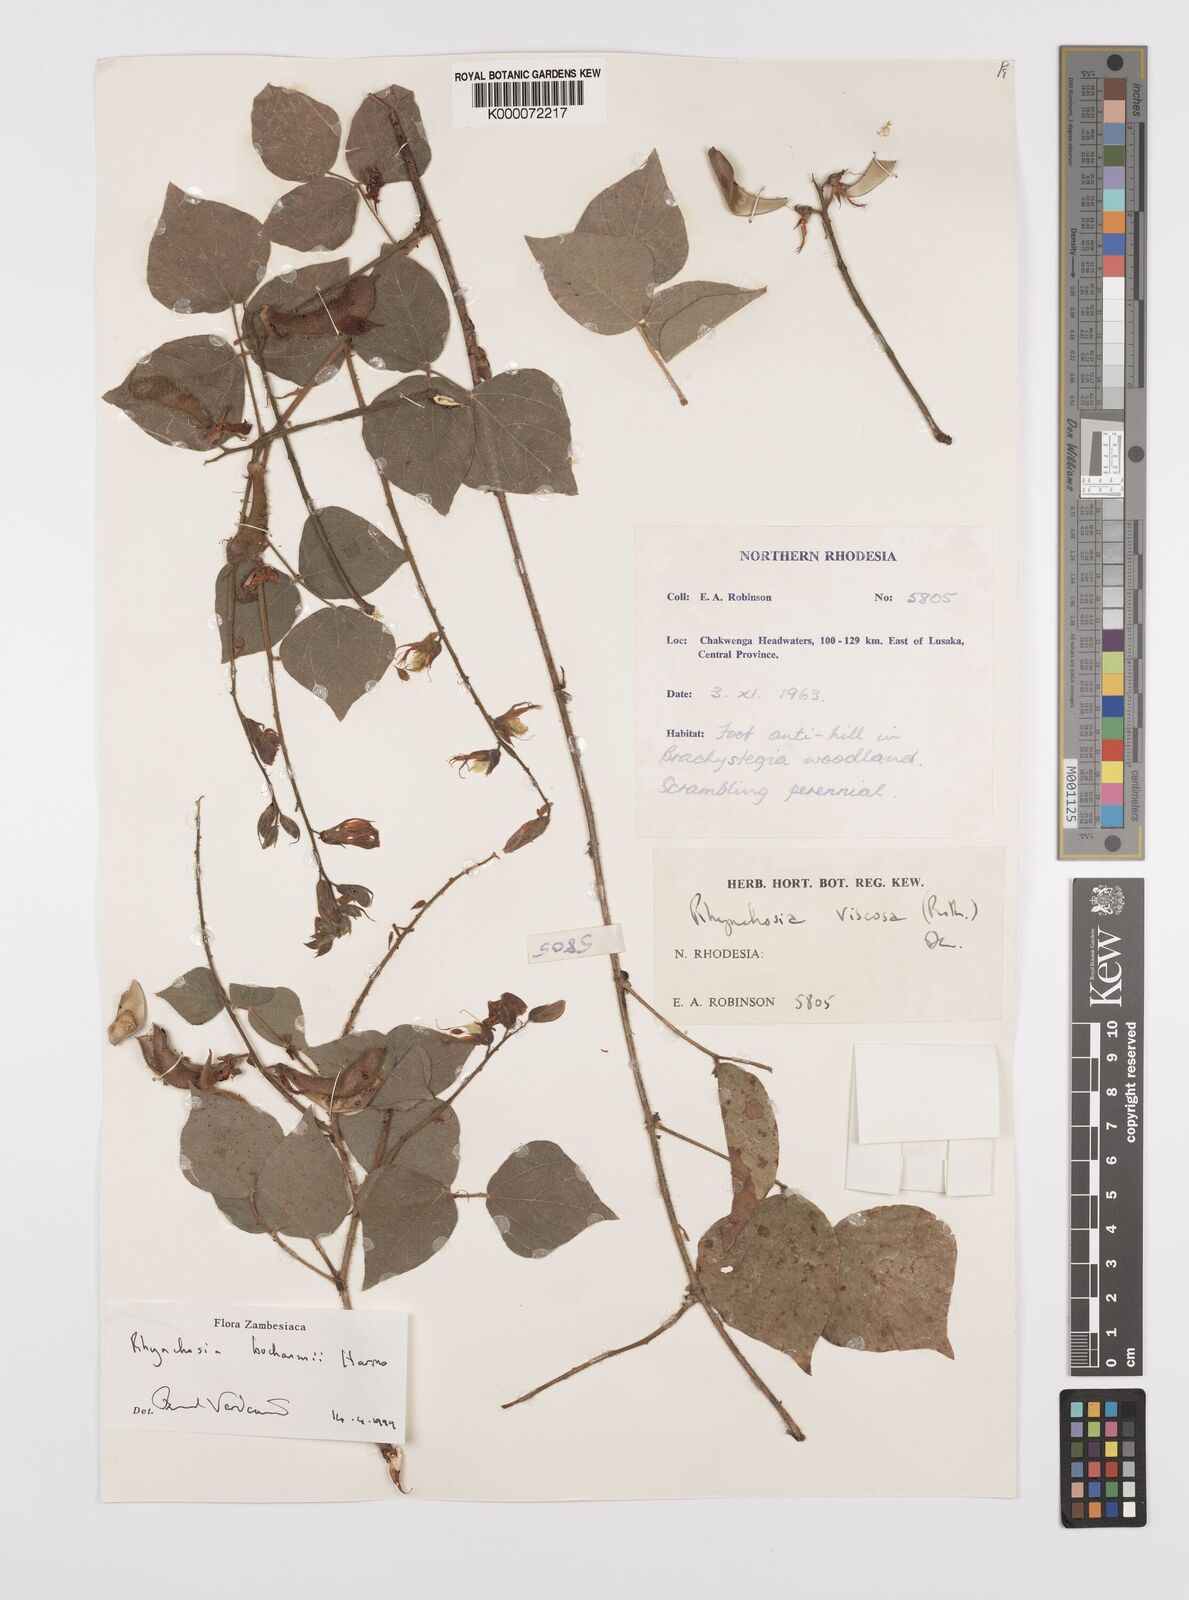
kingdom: Plantae
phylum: Tracheophyta
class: Magnoliopsida
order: Fabales
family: Fabaceae
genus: Rhynchosia
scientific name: Rhynchosia buchananii
